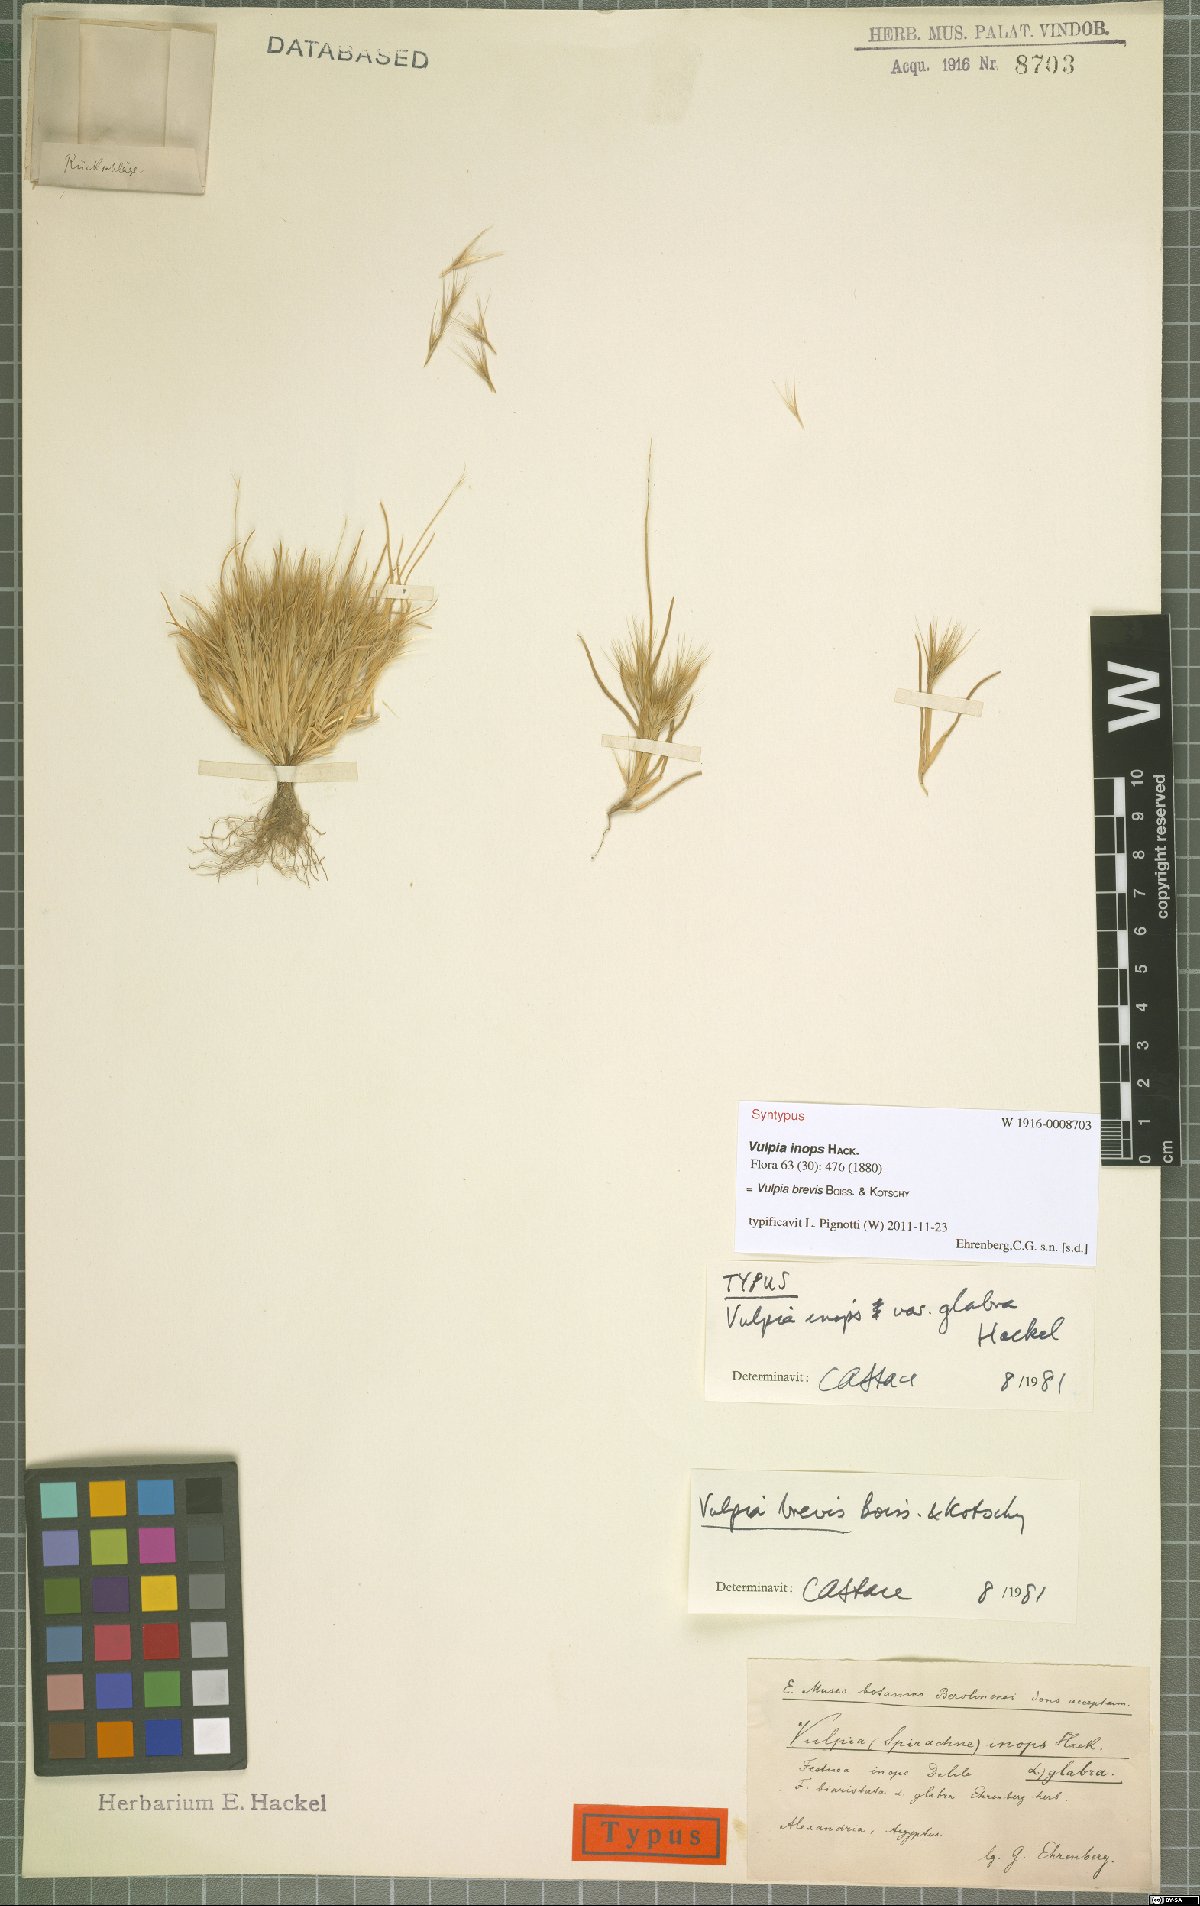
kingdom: Plantae
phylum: Tracheophyta
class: Liliopsida
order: Poales
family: Poaceae
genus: Festuca
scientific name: Festuca brevis
